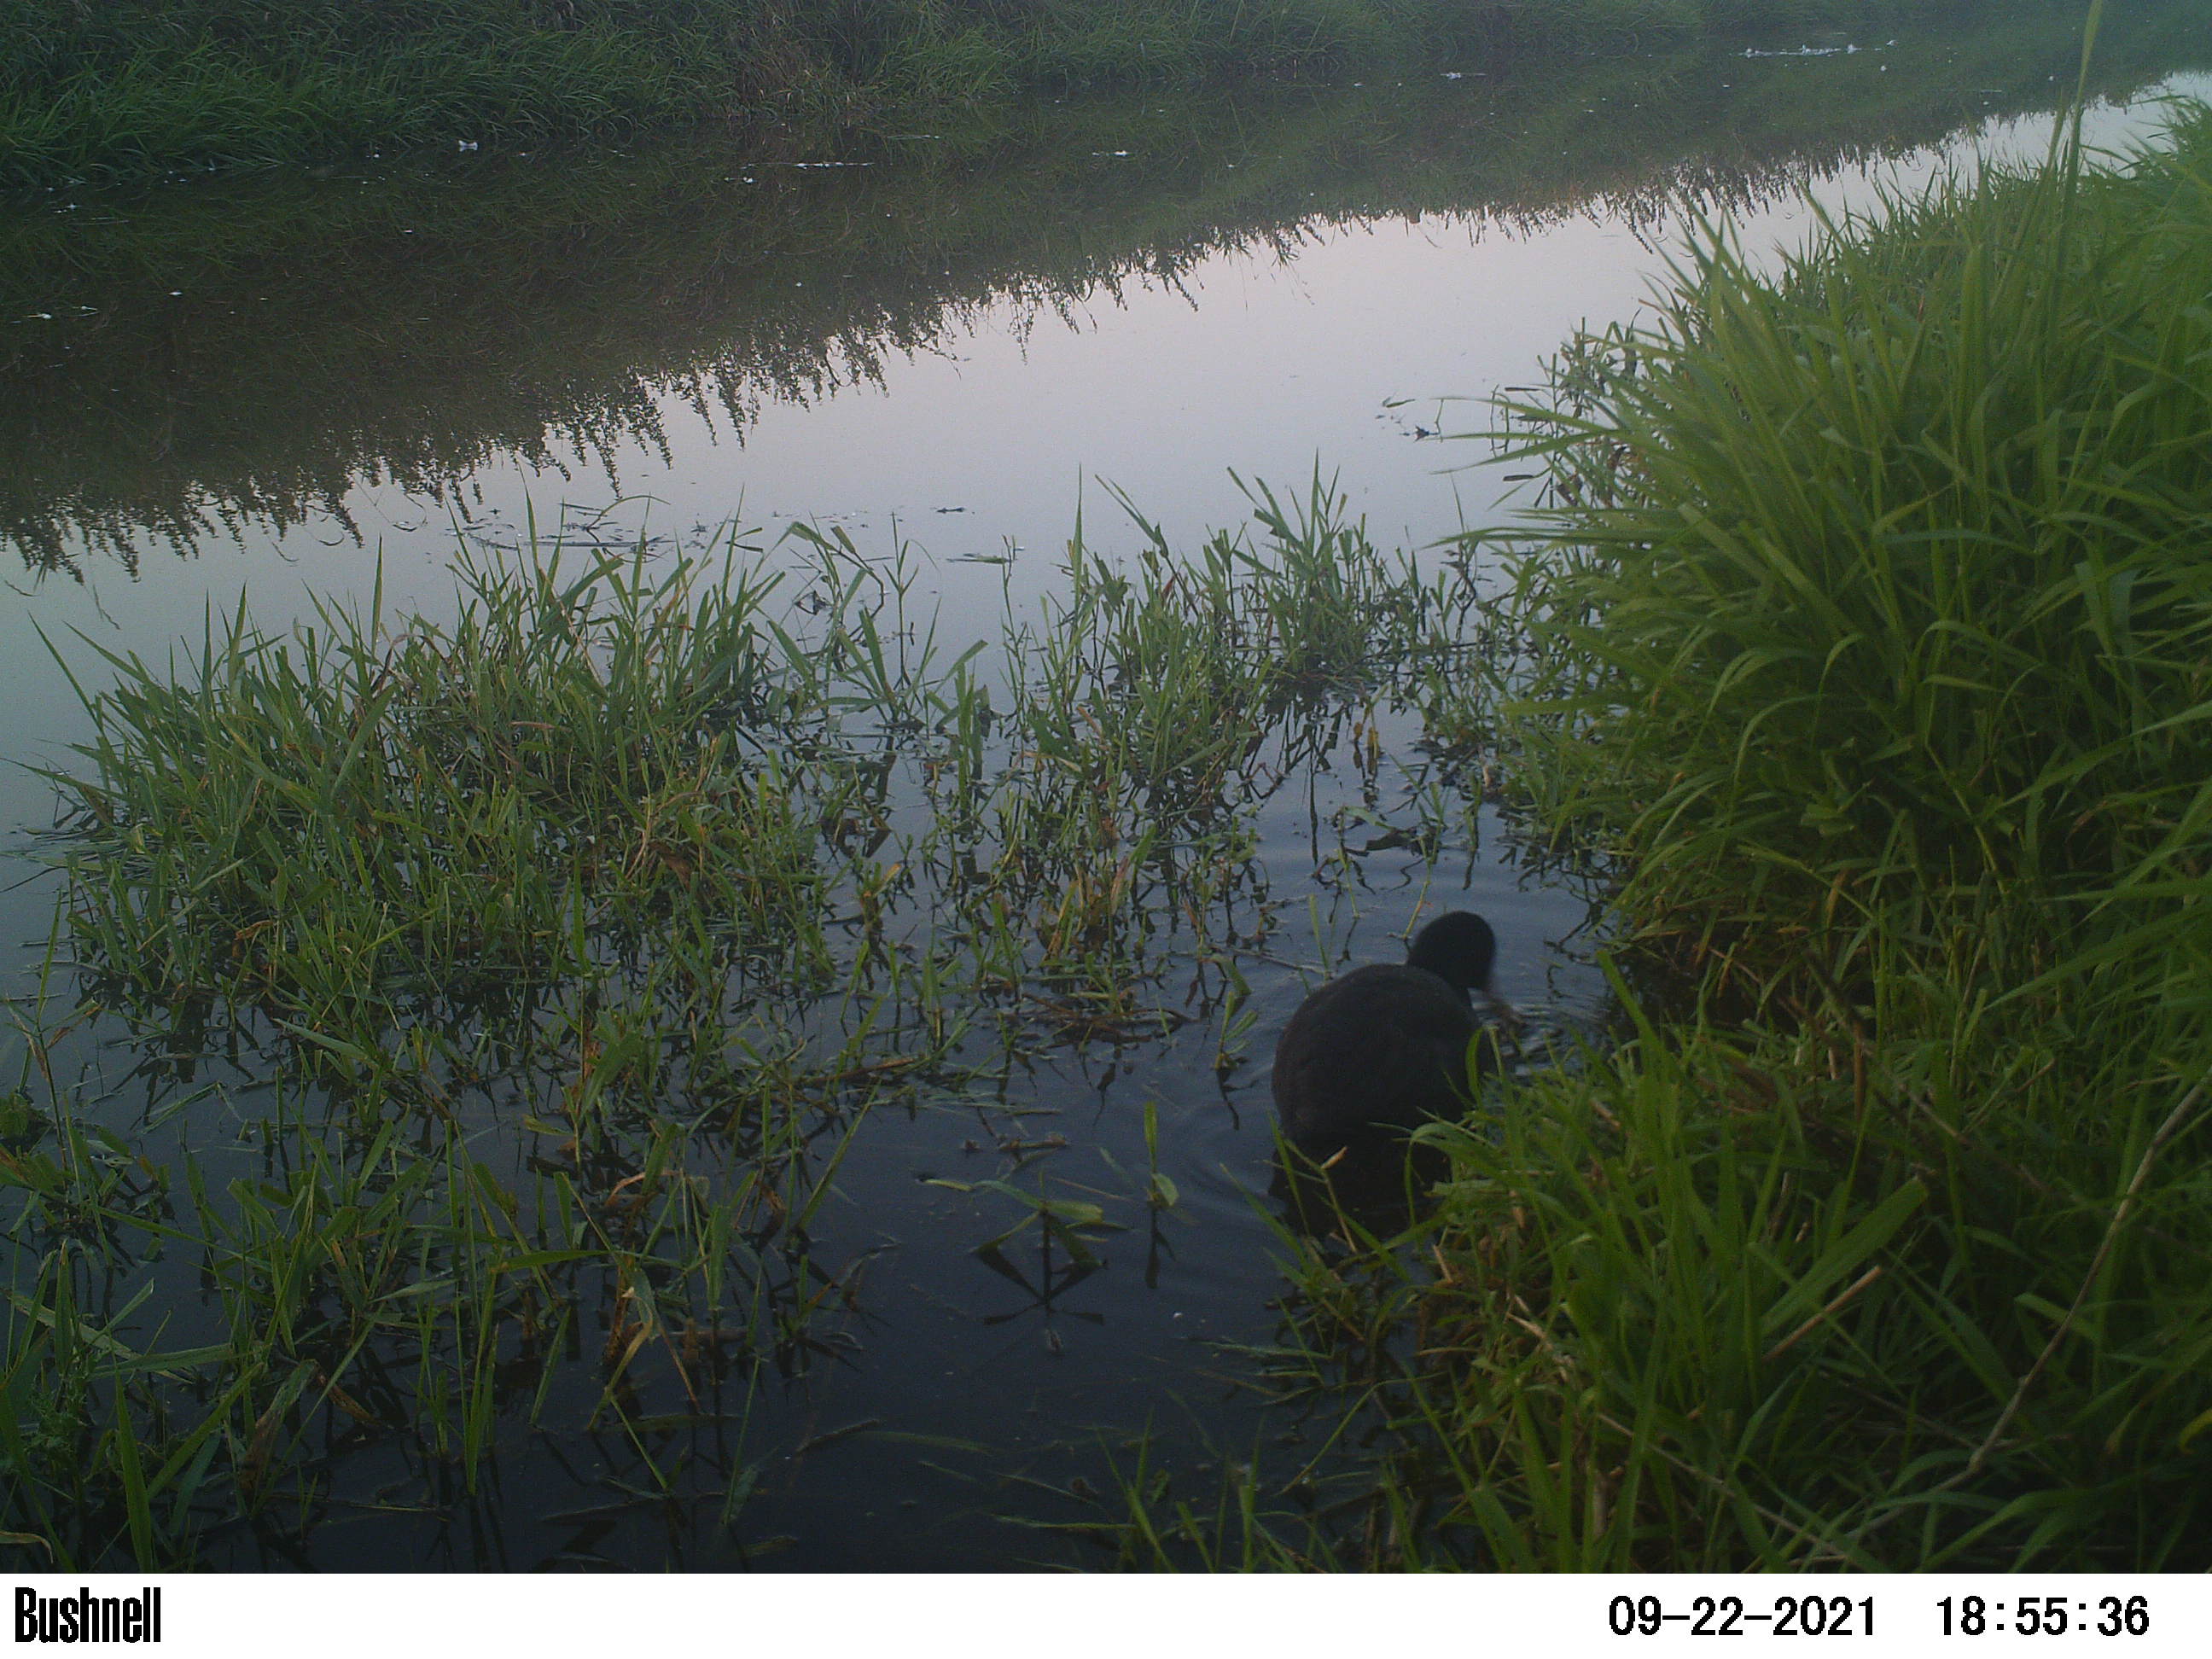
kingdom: Animalia
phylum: Chordata
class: Aves
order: Gruiformes
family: Rallidae
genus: Fulica
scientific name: Fulica atra
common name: Eurasian coot
